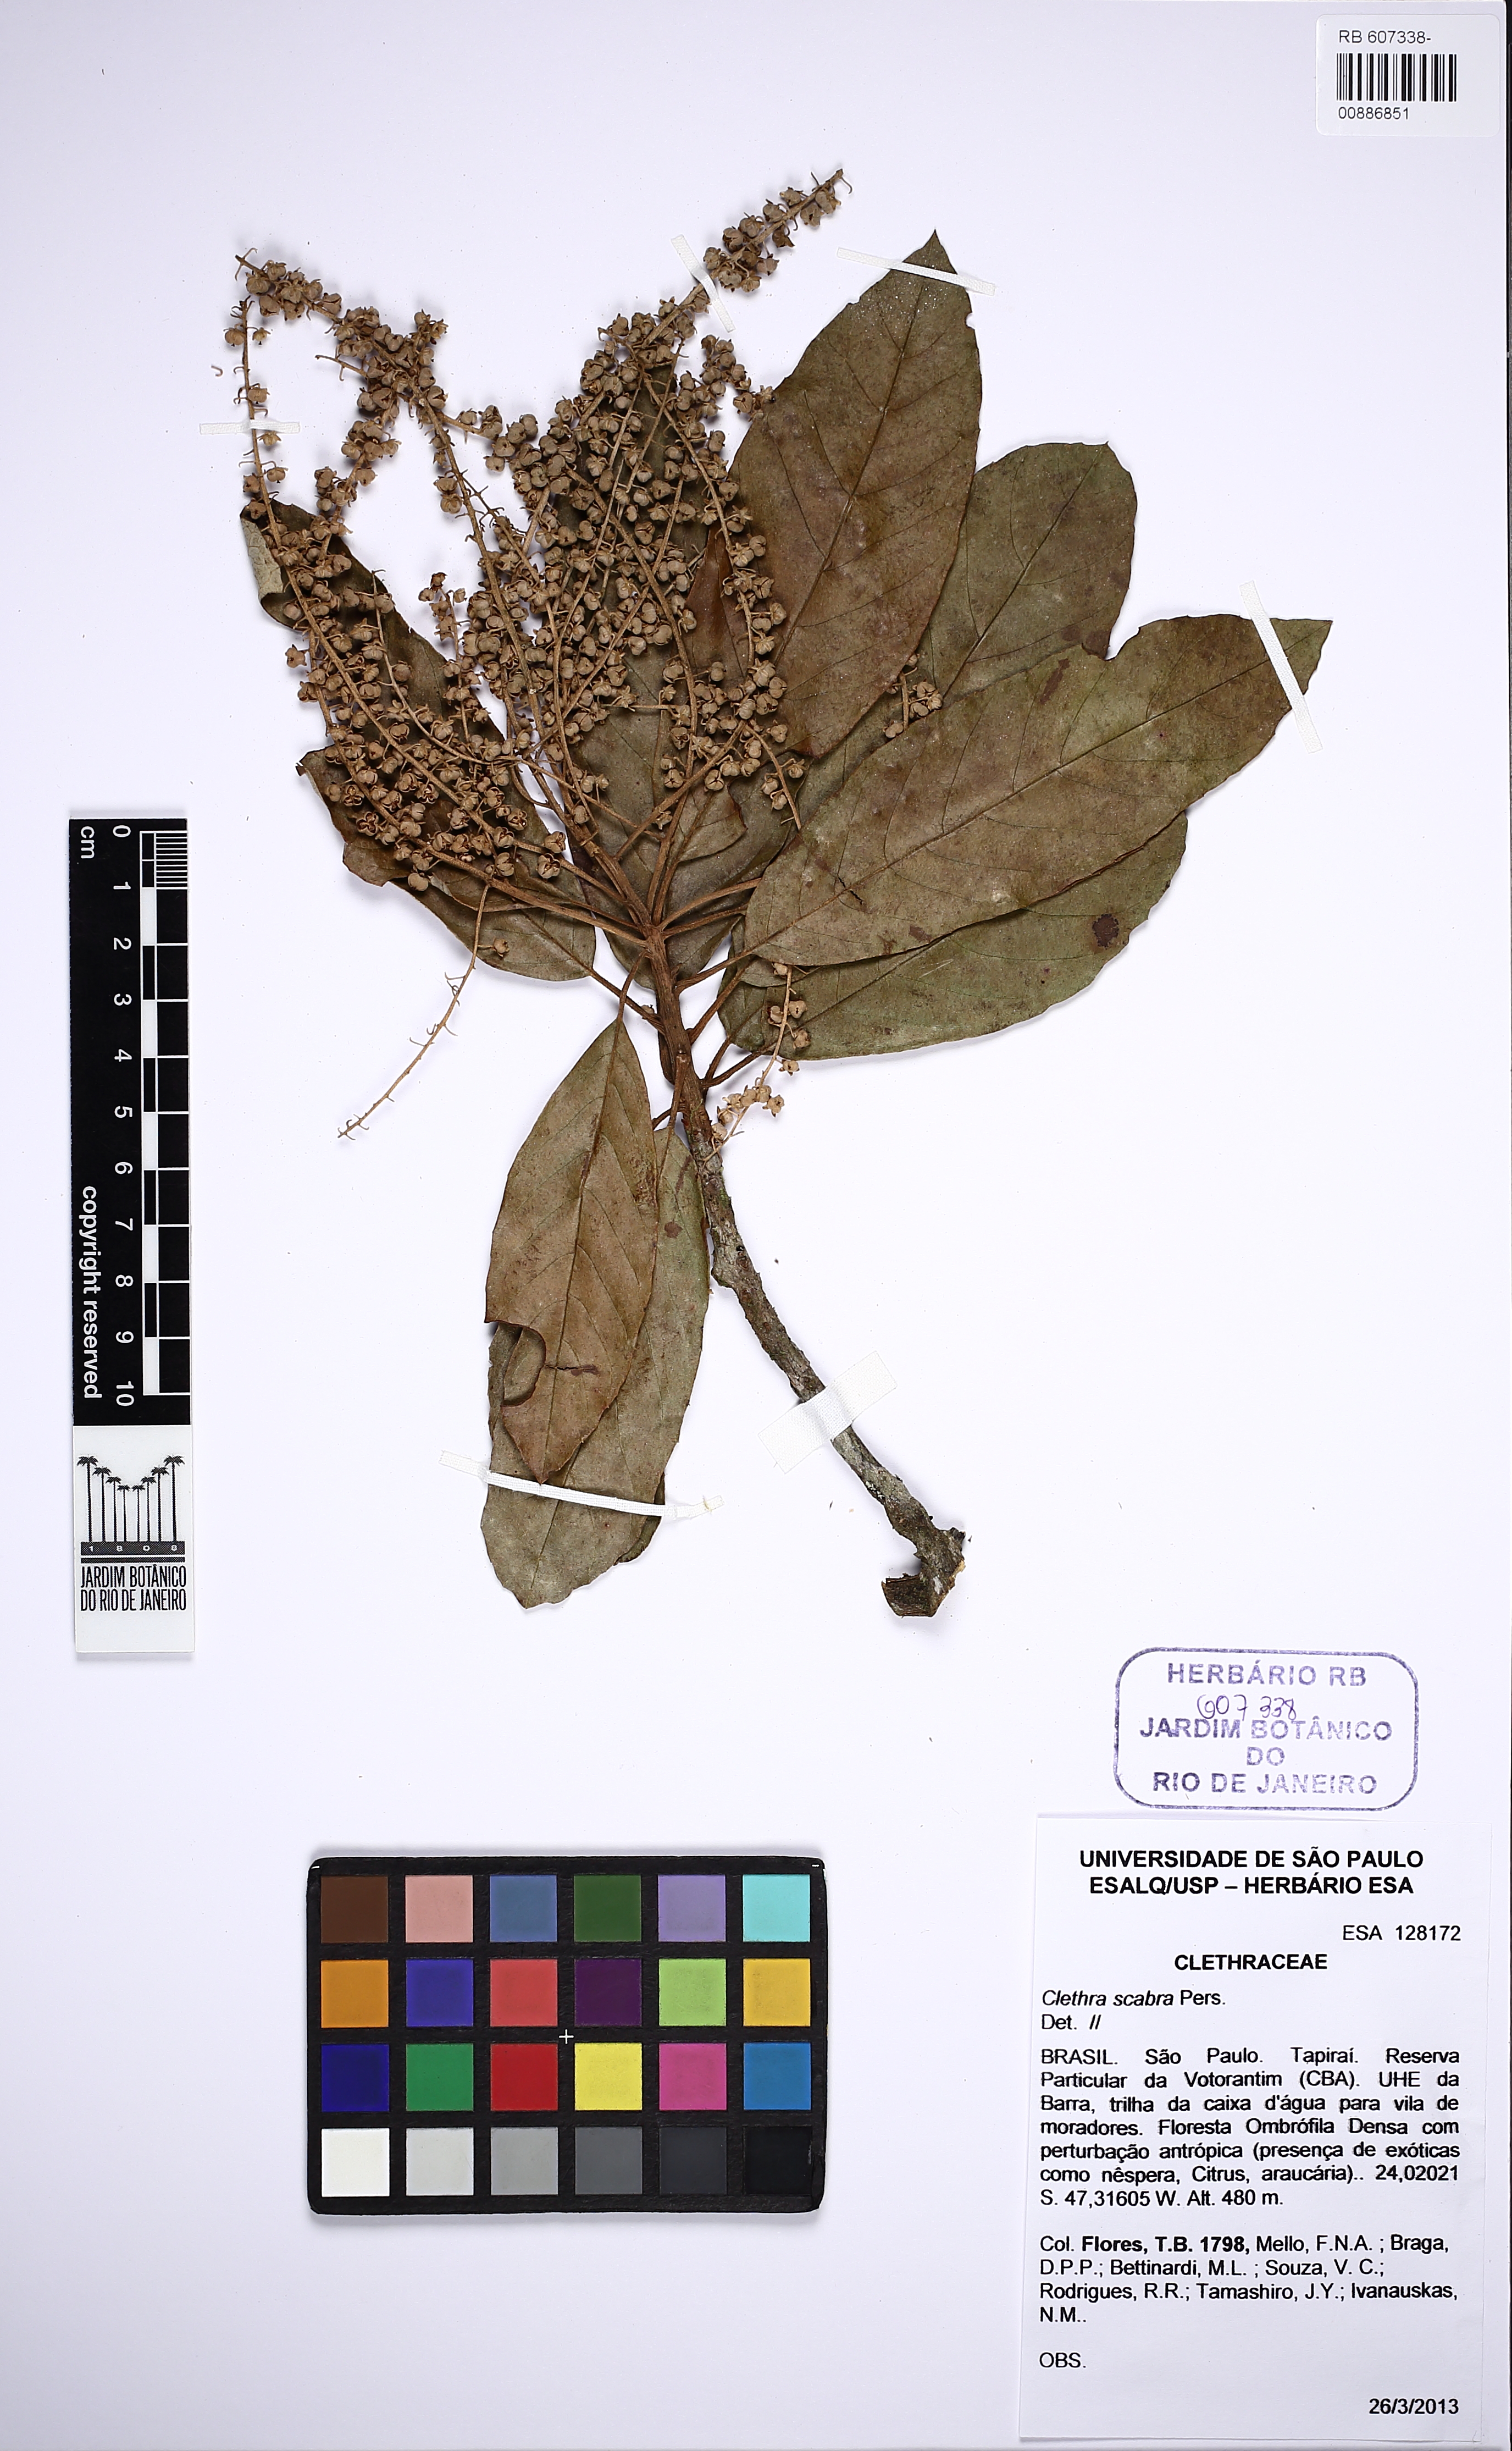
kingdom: Plantae
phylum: Tracheophyta
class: Magnoliopsida
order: Ericales
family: Clethraceae
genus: Clethra
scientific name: Clethra scabra
